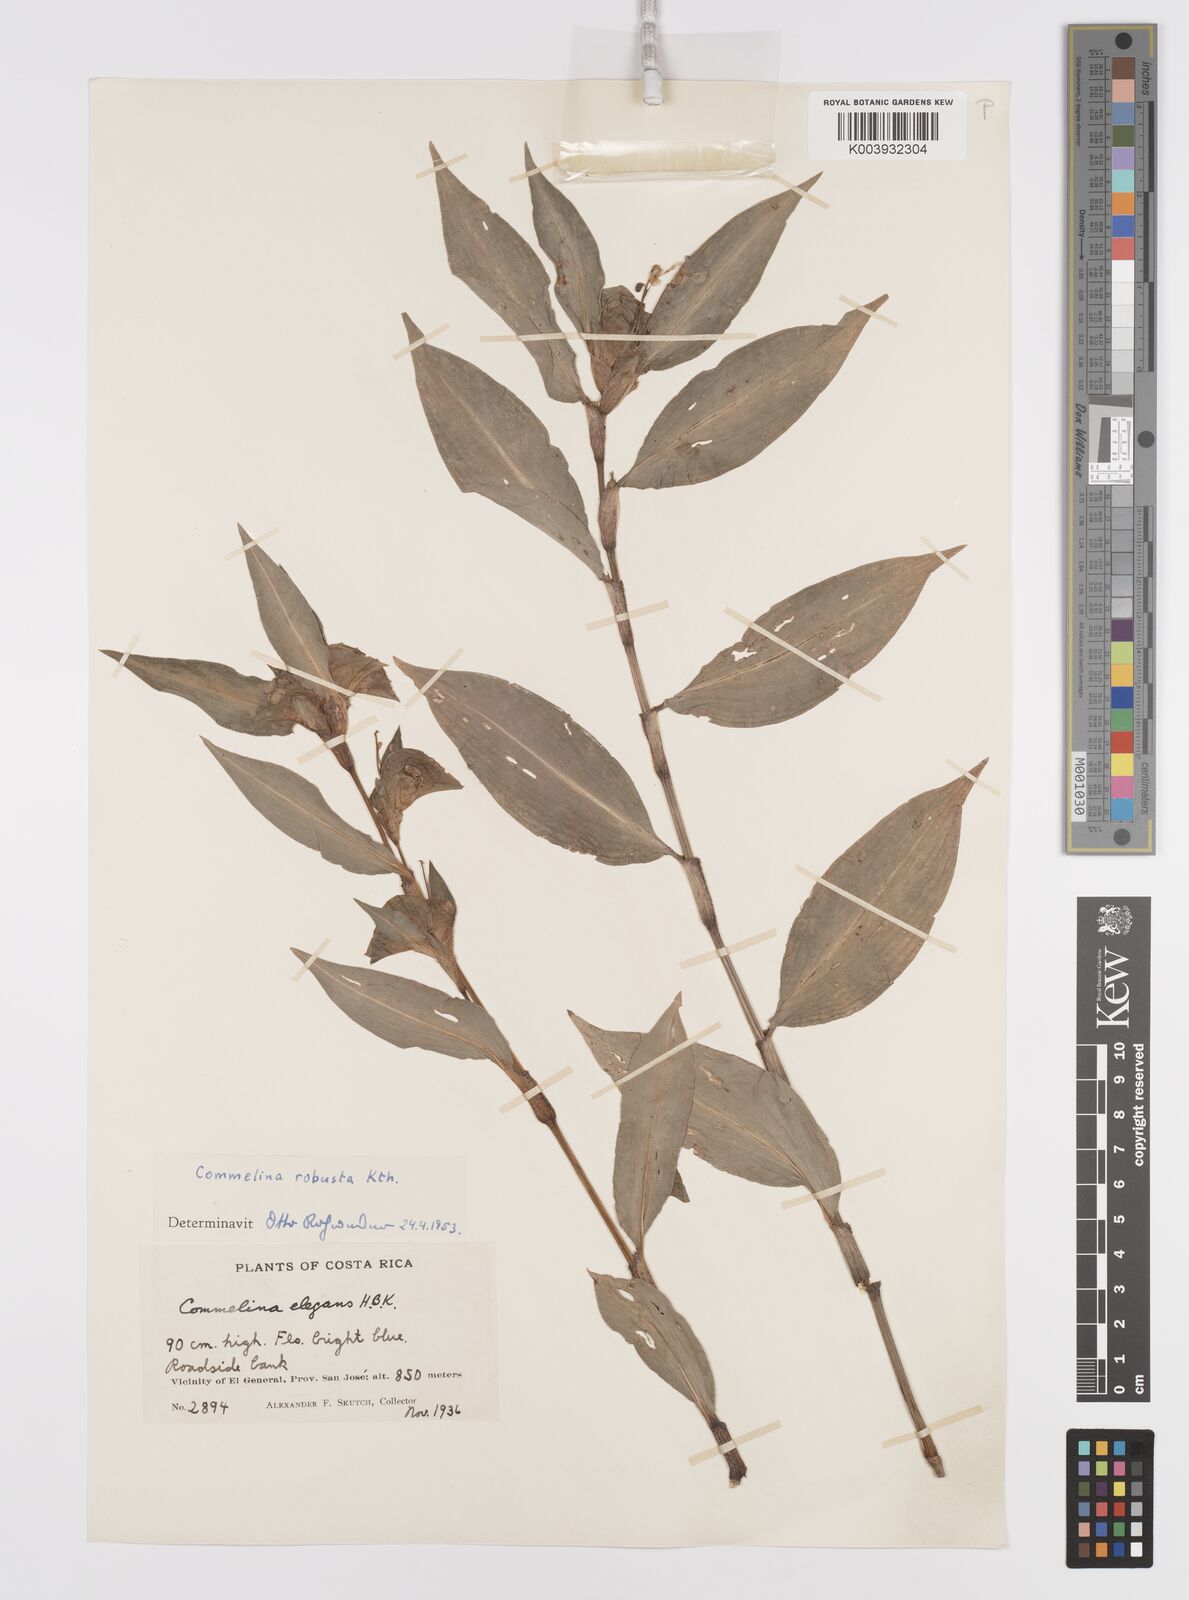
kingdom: Plantae
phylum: Tracheophyta
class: Liliopsida
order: Commelinales
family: Commelinaceae
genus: Commelina
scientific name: Commelina obliqua
